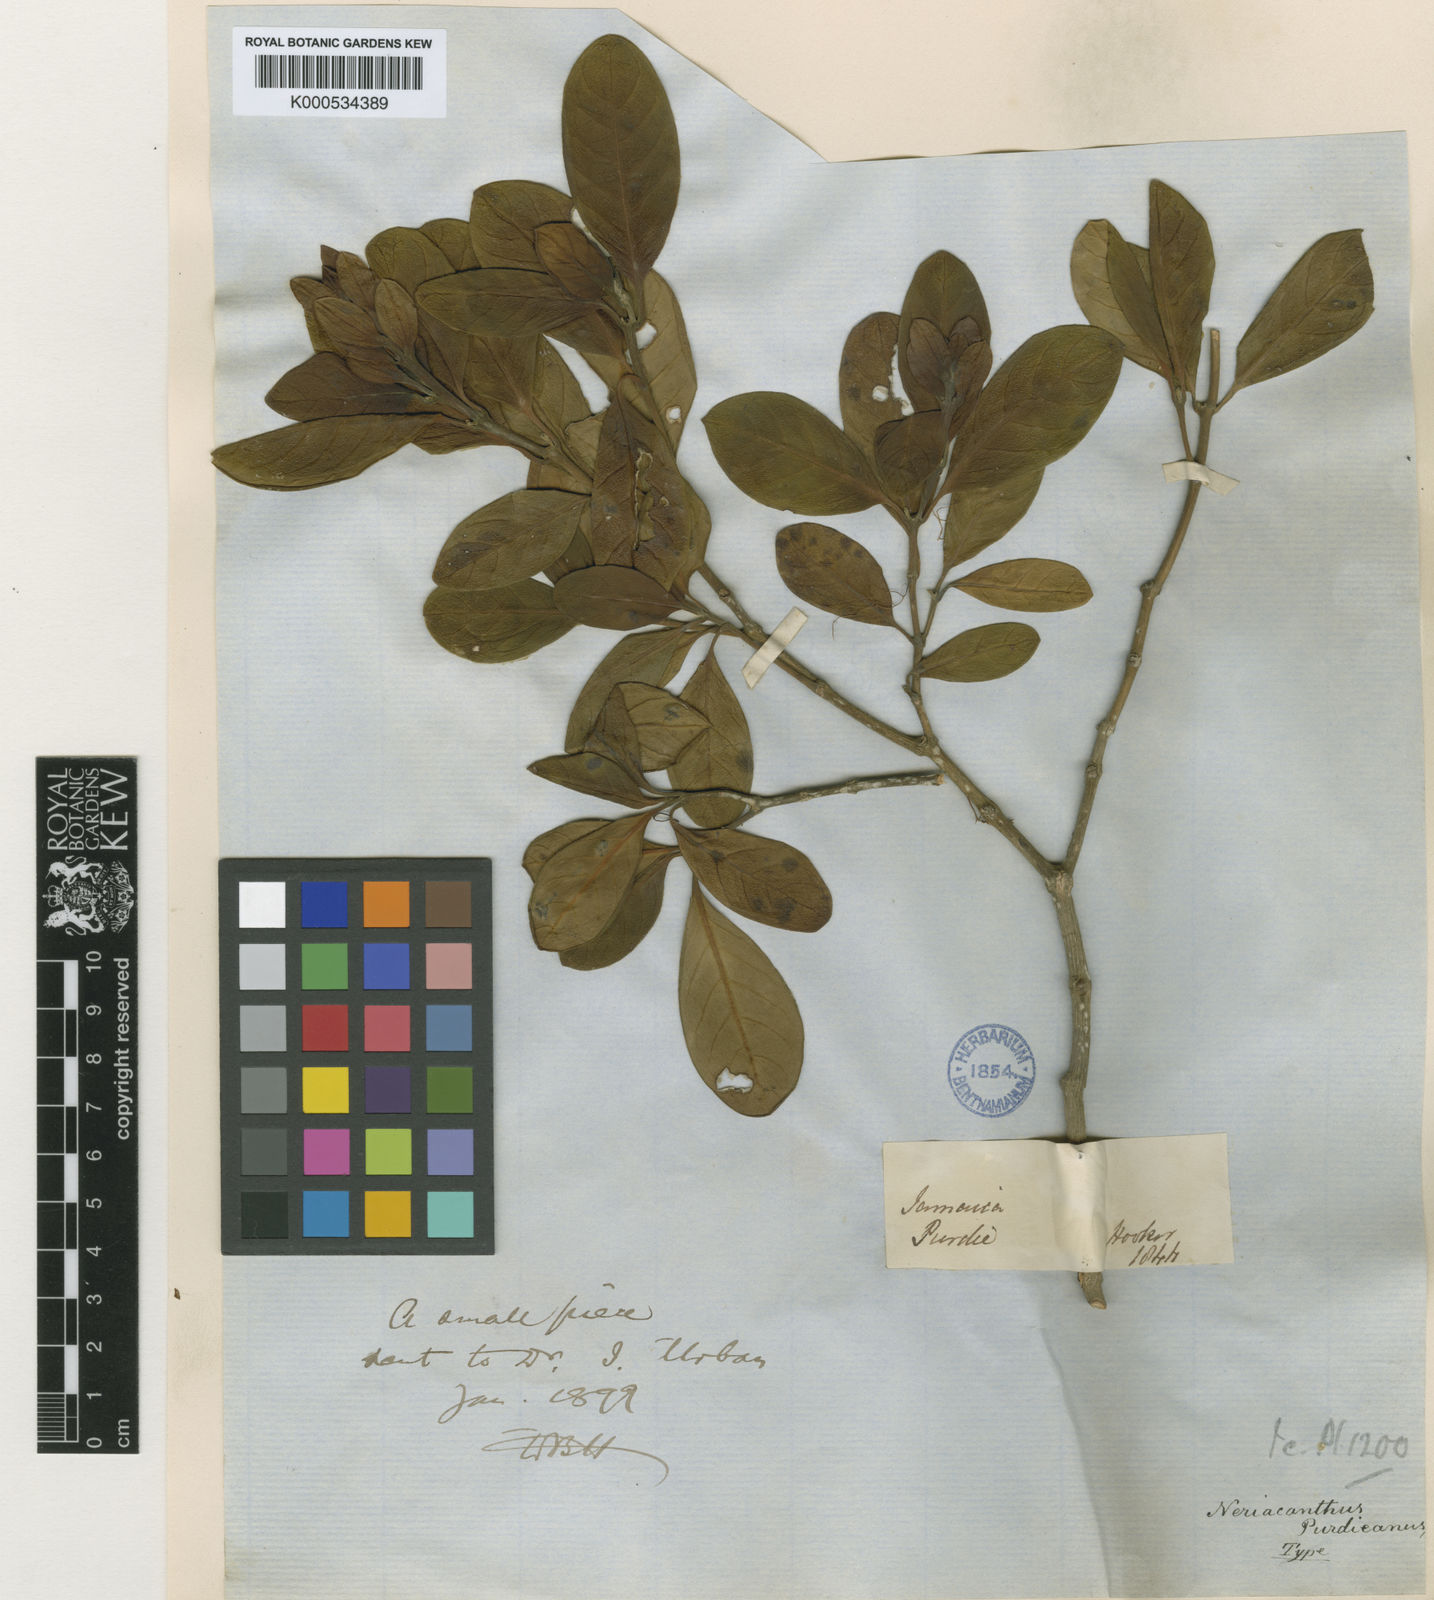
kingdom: Plantae
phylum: Tracheophyta
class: Magnoliopsida
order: Lamiales
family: Acanthaceae
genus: Neriacanthus
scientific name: Neriacanthus purdieanus
